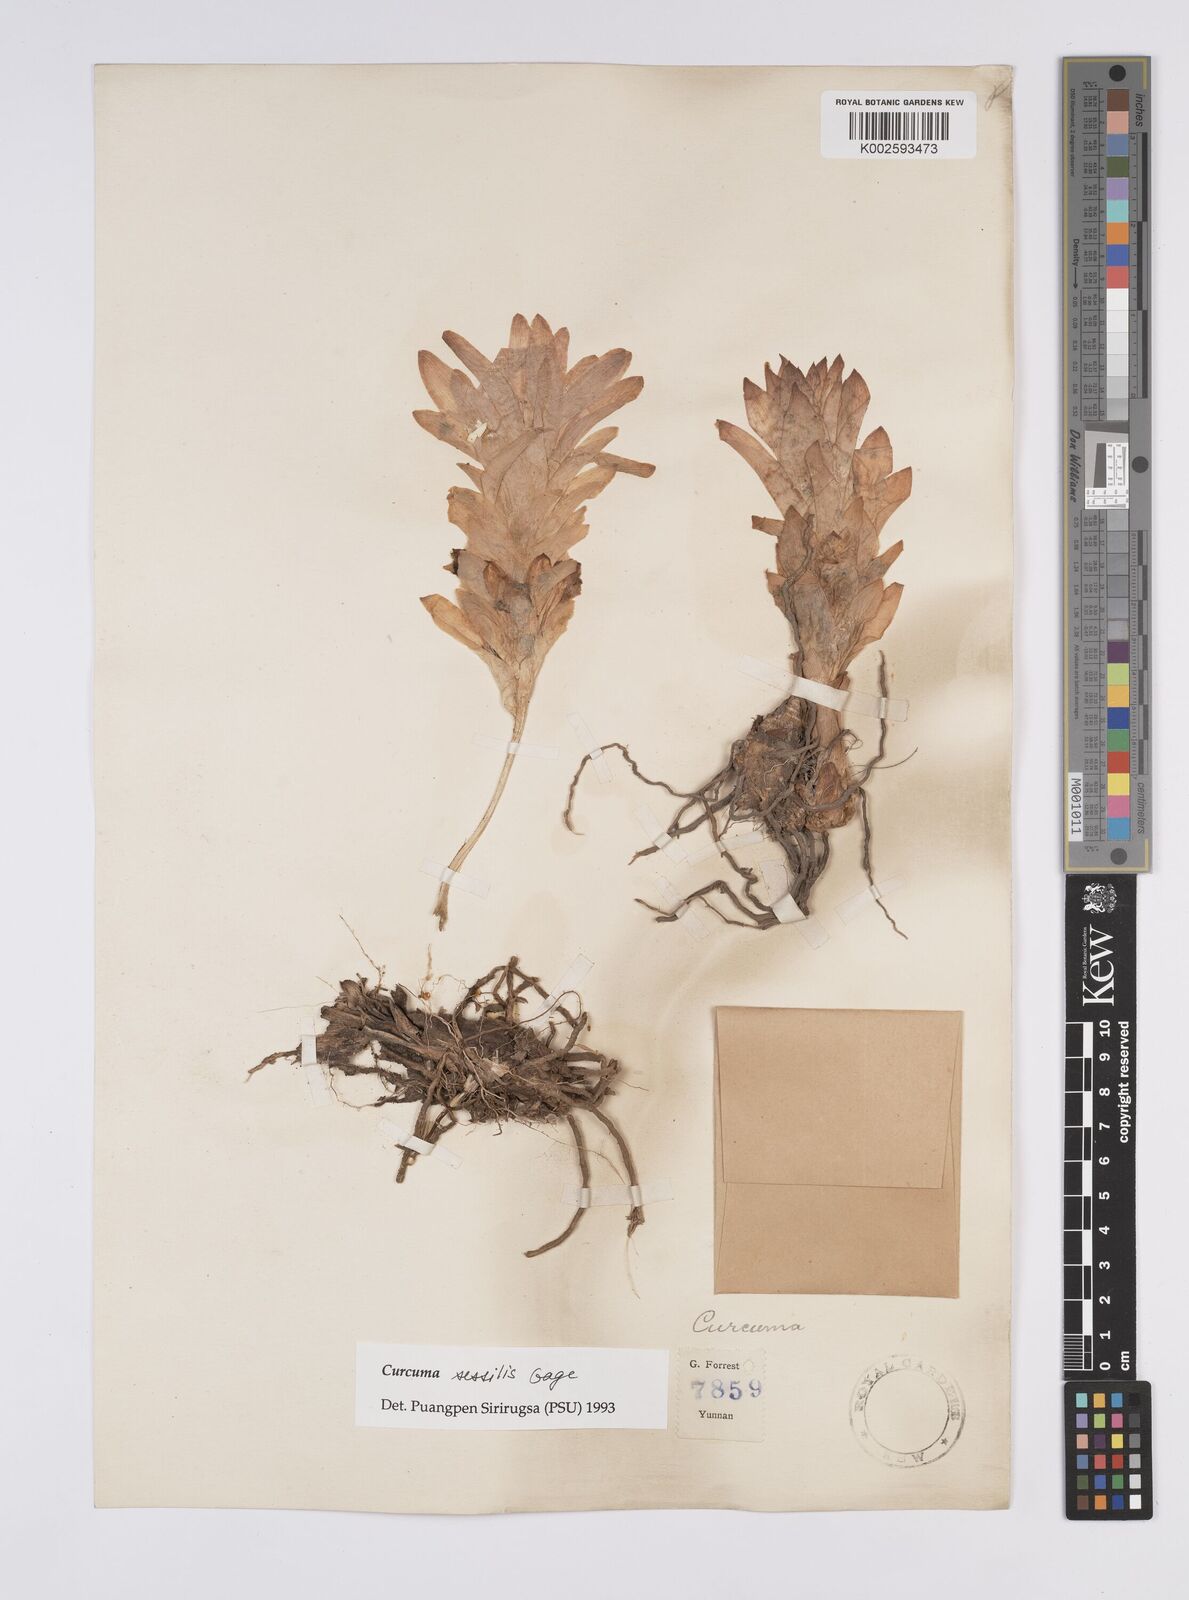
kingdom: Plantae
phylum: Tracheophyta
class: Liliopsida
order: Zingiberales
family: Zingiberaceae
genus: Curcuma
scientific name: Curcuma sessilis
